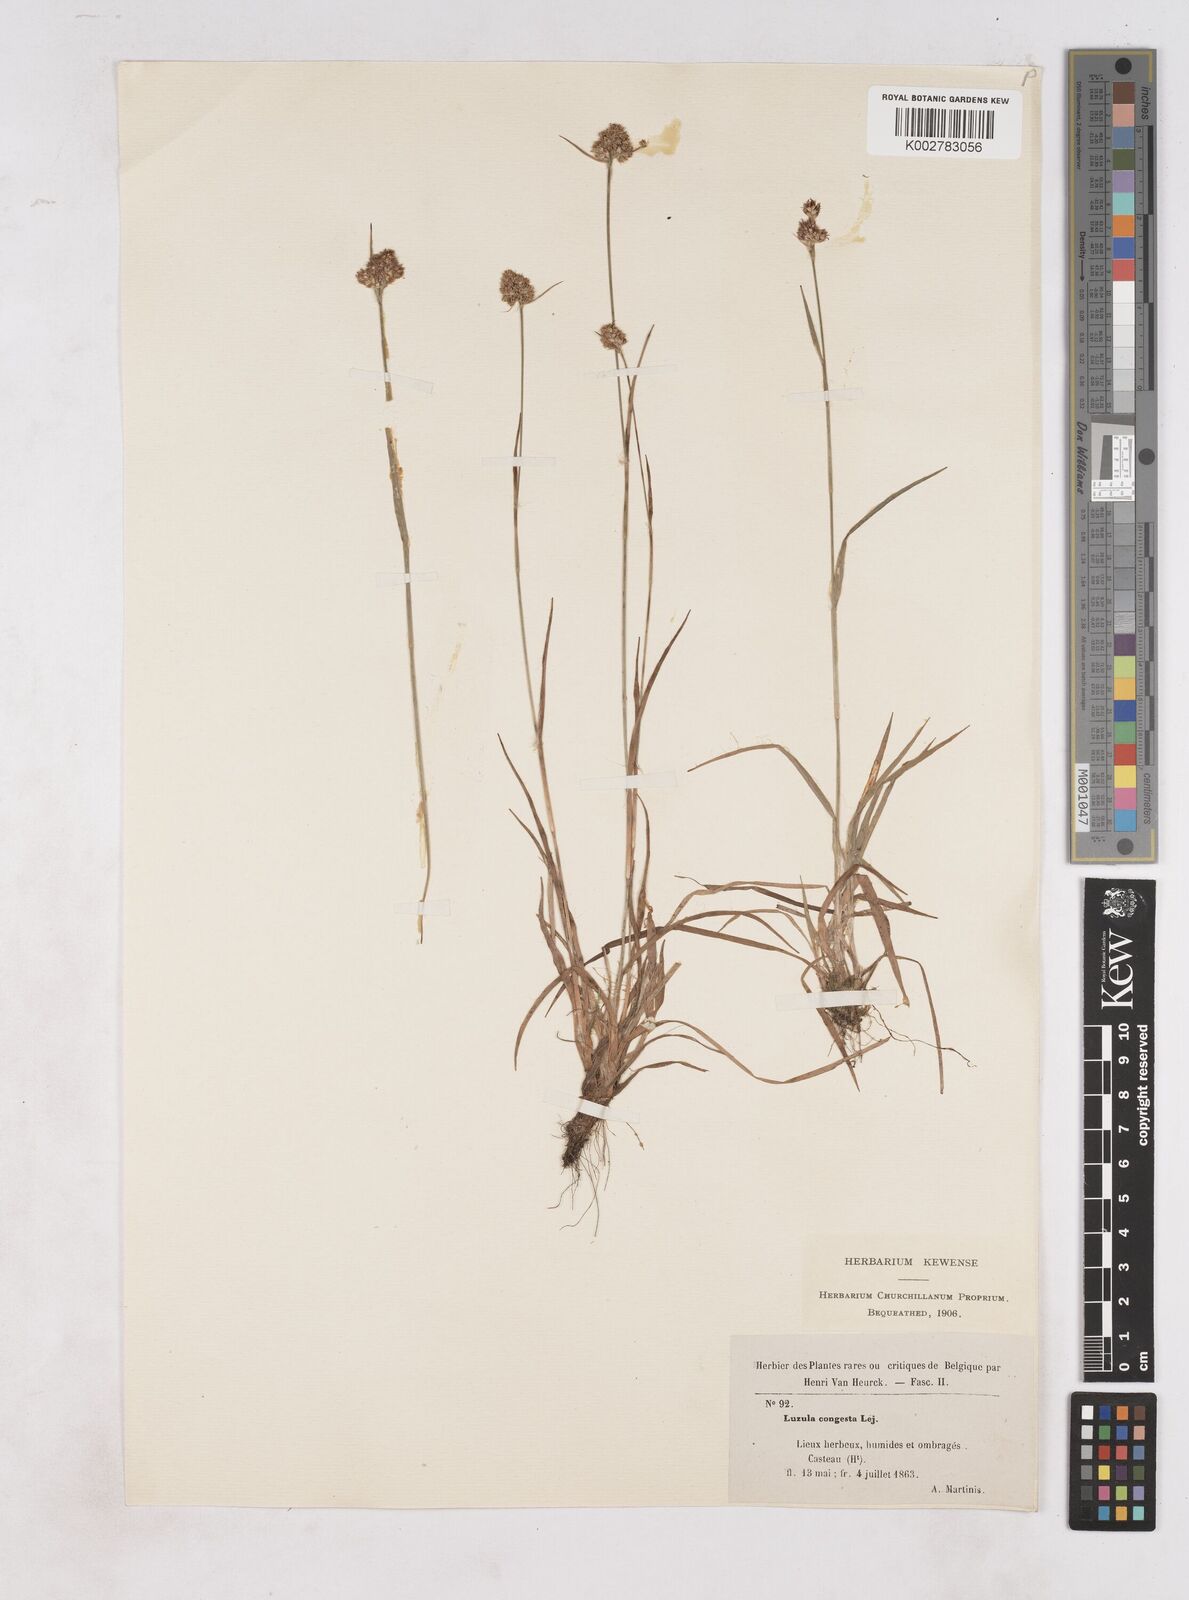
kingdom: Plantae
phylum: Tracheophyta
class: Liliopsida
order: Poales
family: Juncaceae
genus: Luzula
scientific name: Luzula campestris
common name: Field wood-rush
